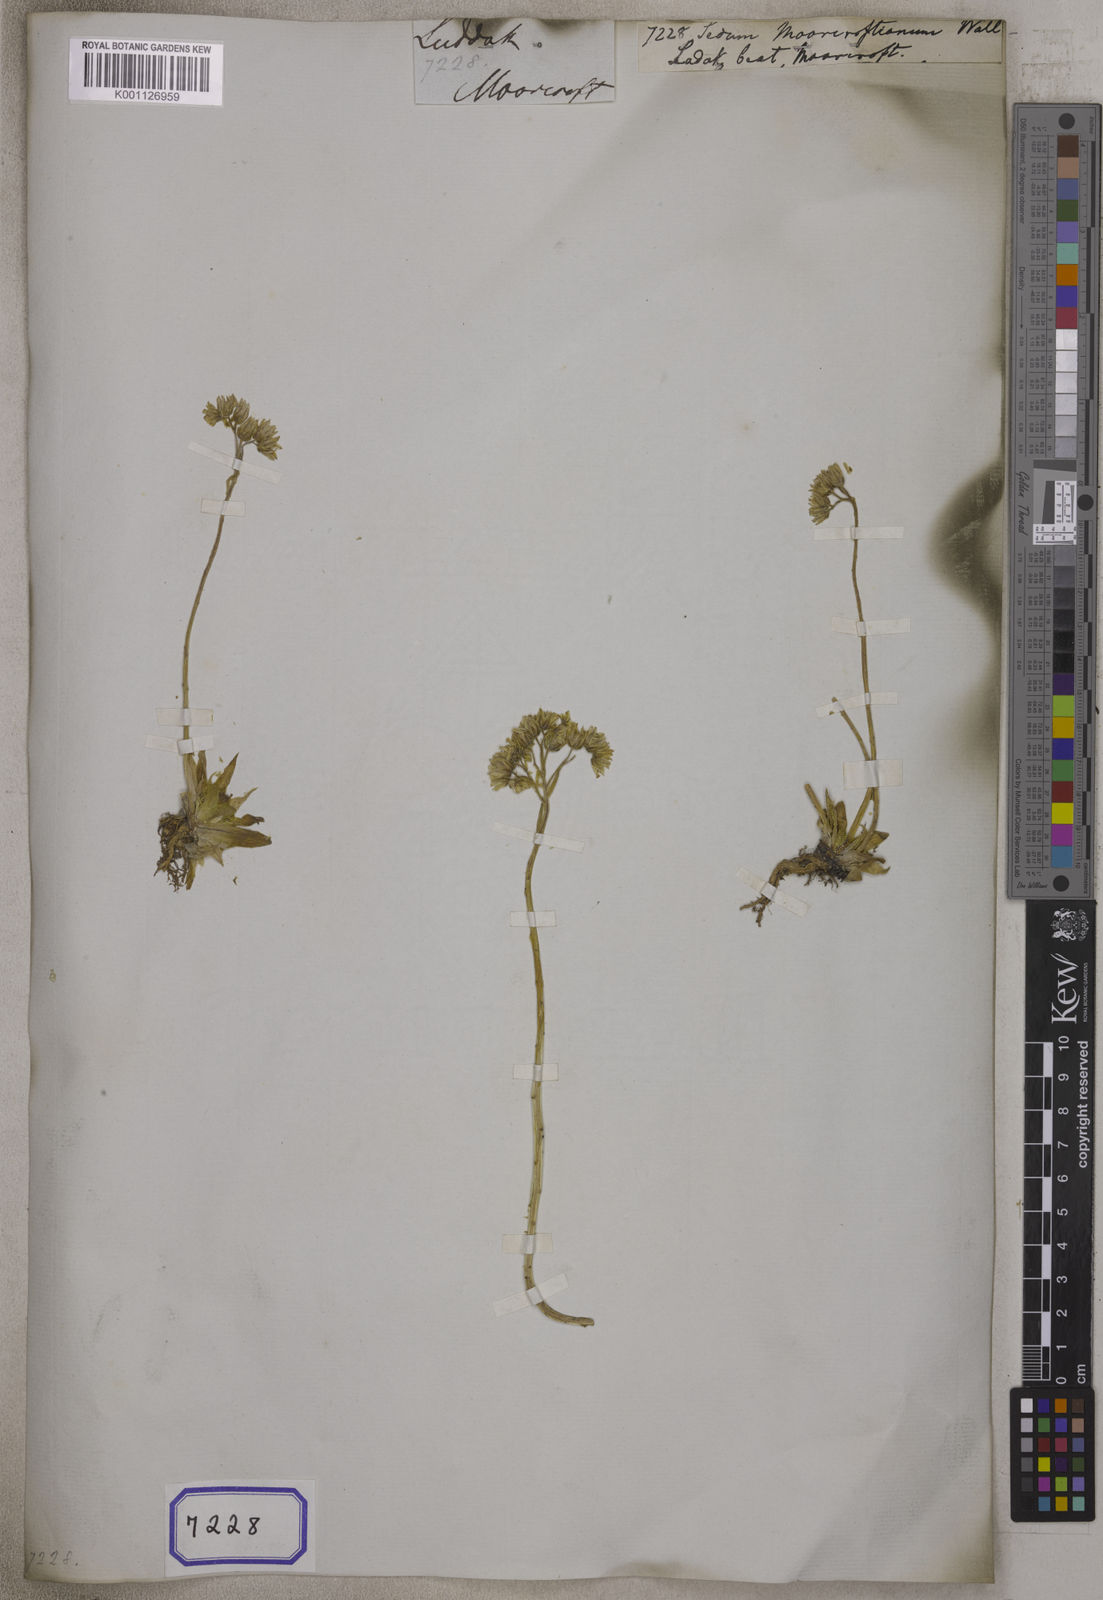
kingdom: Plantae
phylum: Tracheophyta
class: Magnoliopsida
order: Saxifragales
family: Crassulaceae
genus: Rosularia
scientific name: Rosularia alpestris
